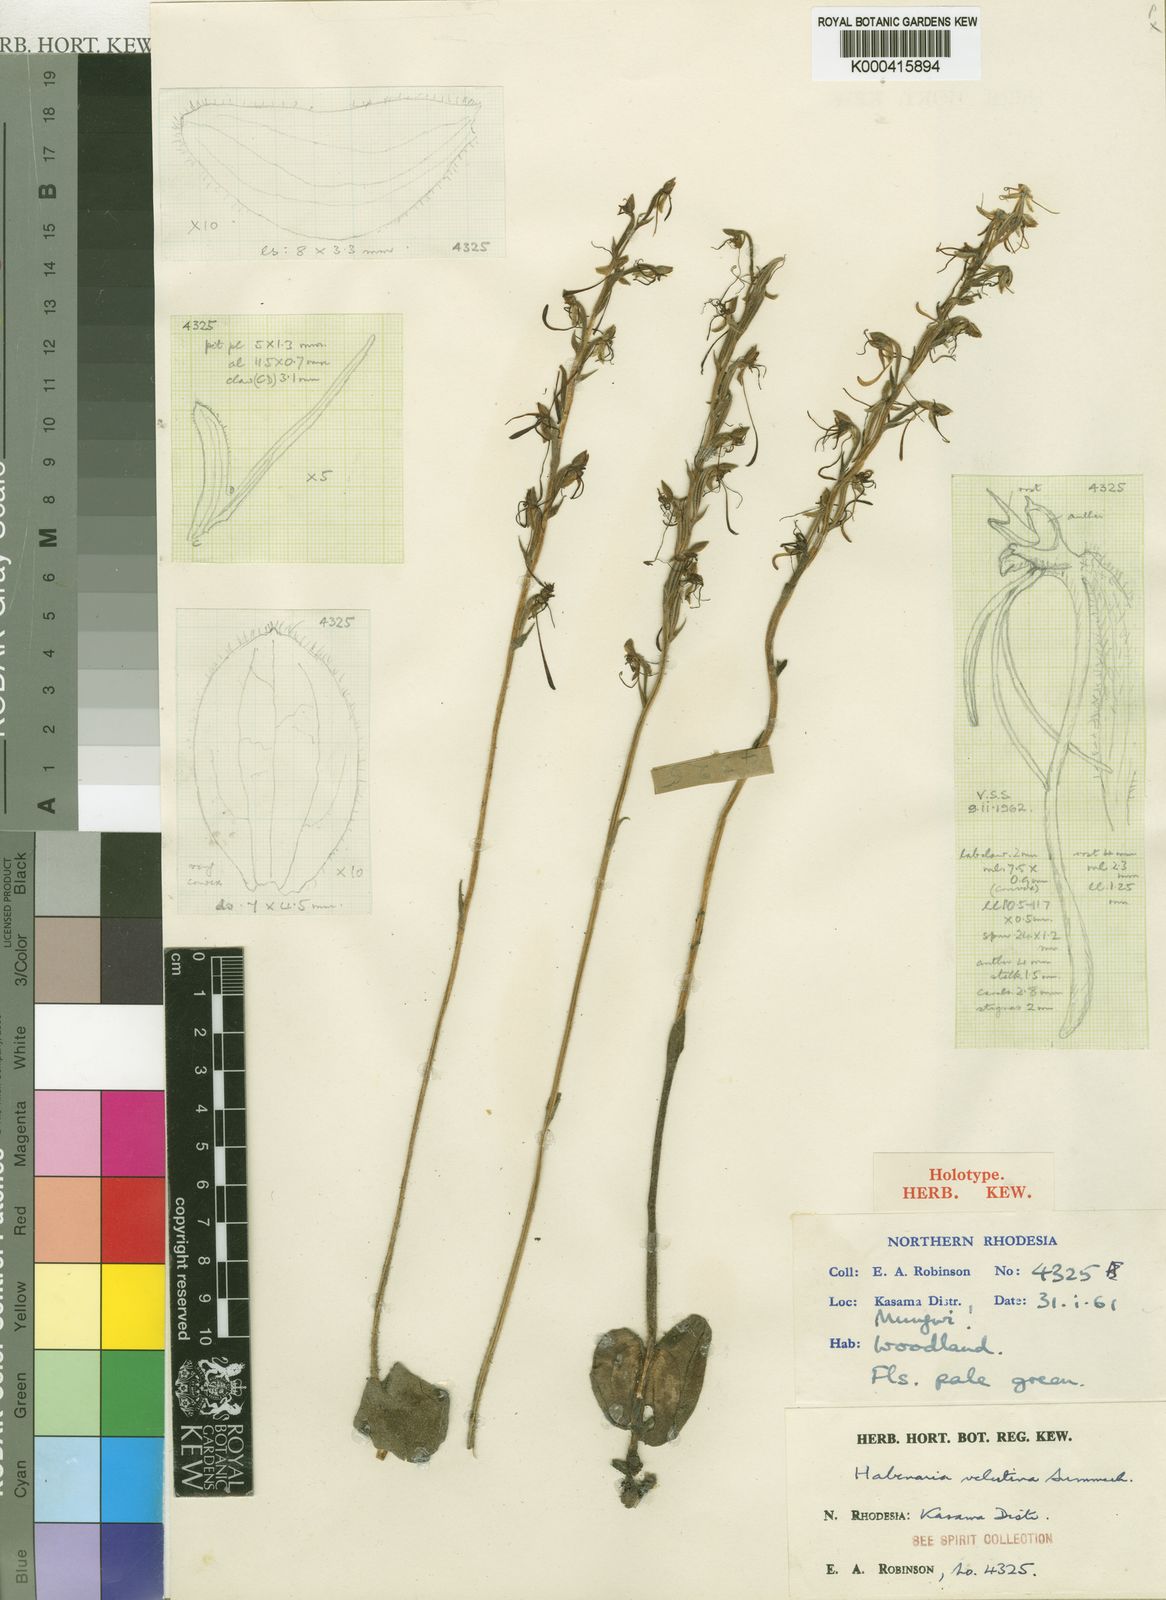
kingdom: Plantae
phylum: Tracheophyta
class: Liliopsida
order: Asparagales
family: Orchidaceae
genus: Habenaria
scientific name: Habenaria velutina
